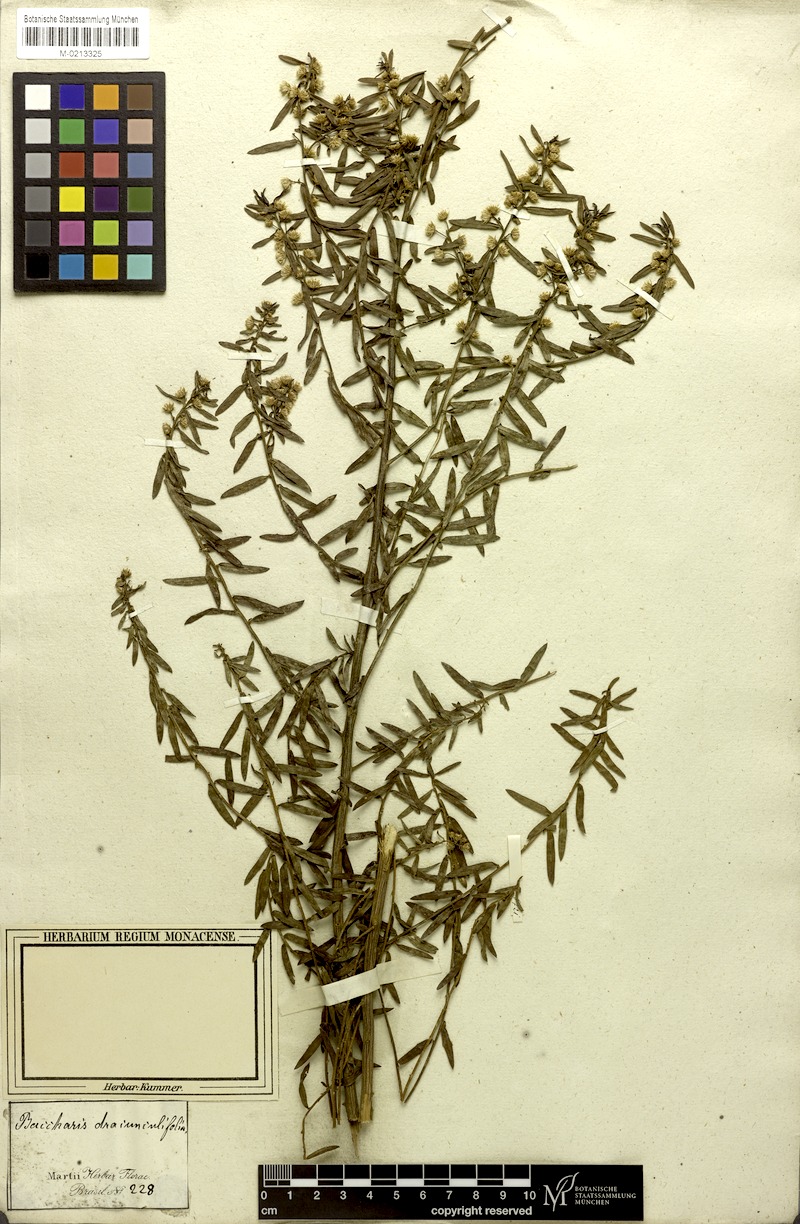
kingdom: Plantae
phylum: Tracheophyta
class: Magnoliopsida
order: Asterales
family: Asteraceae
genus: Baccharis
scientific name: Baccharis dracunculifolia
